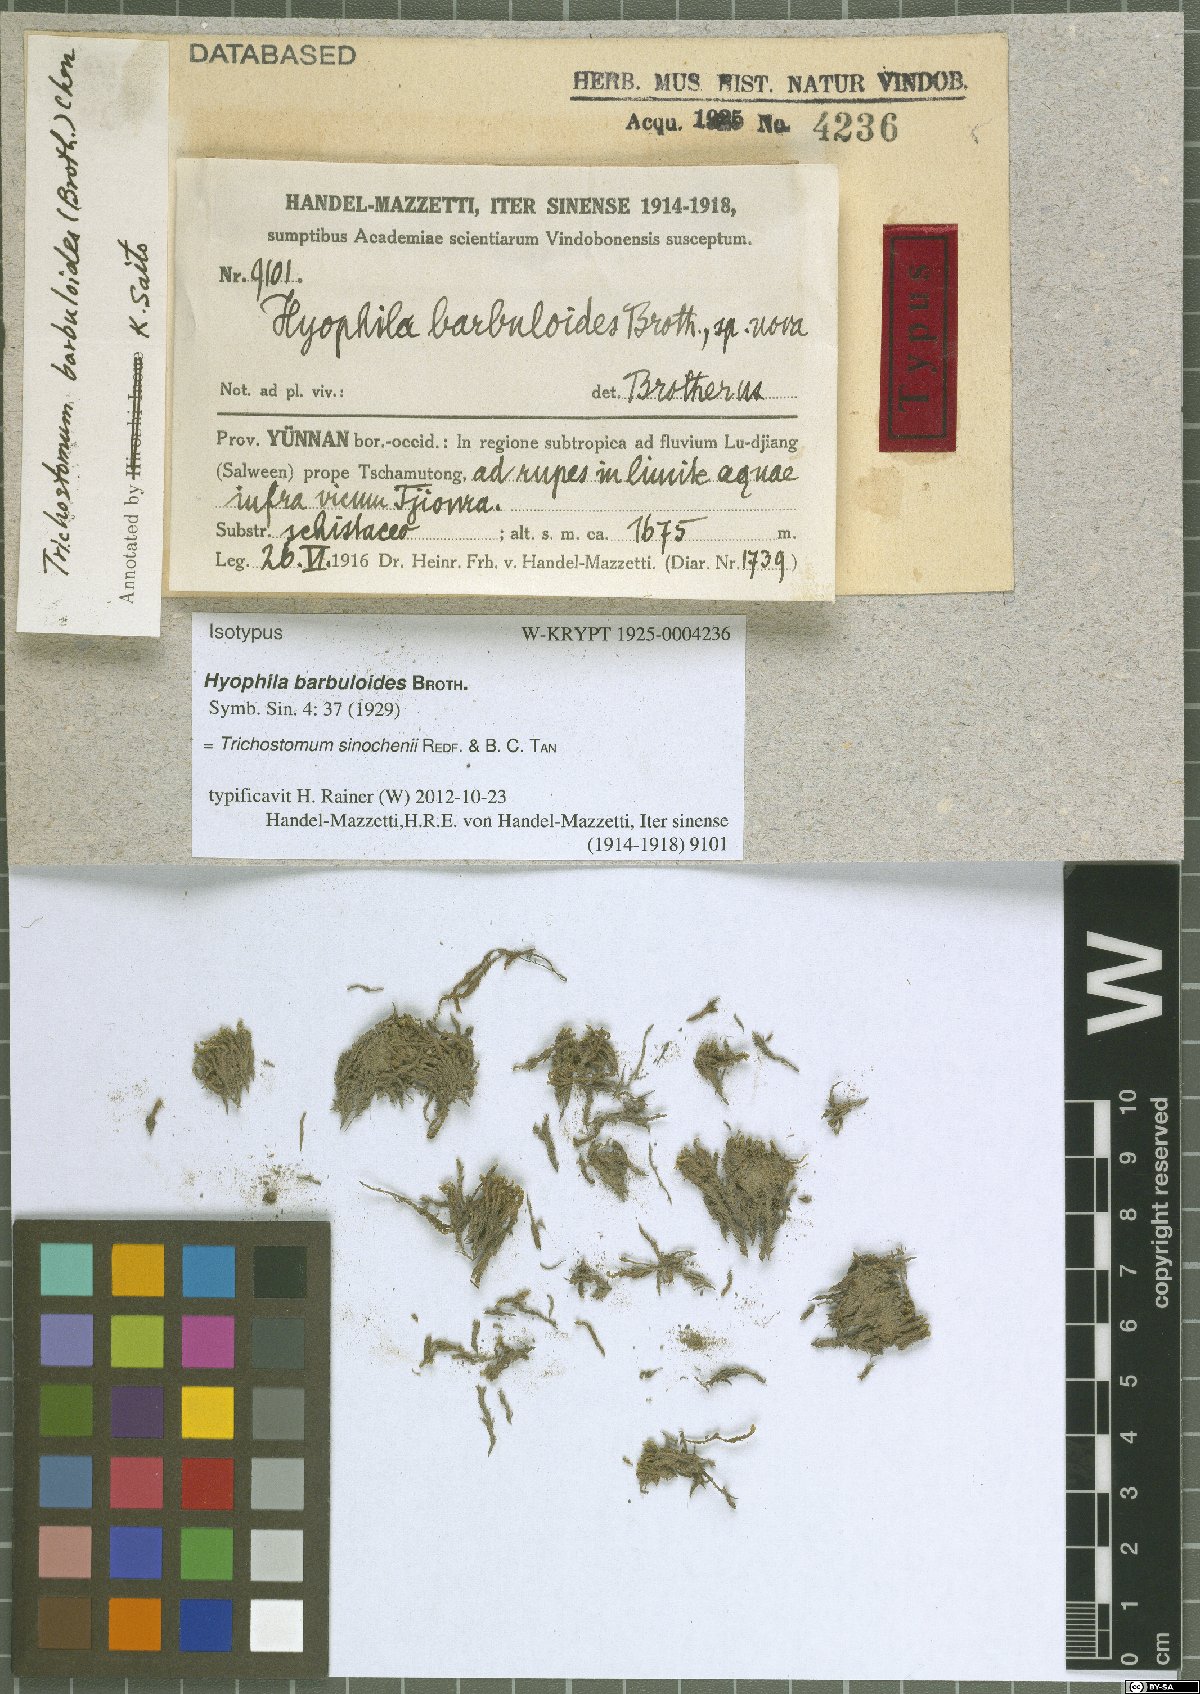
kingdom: Plantae
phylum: Bryophyta
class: Bryopsida
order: Pottiales
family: Pottiaceae
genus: Trichostomum
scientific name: Trichostomum sinochenii
